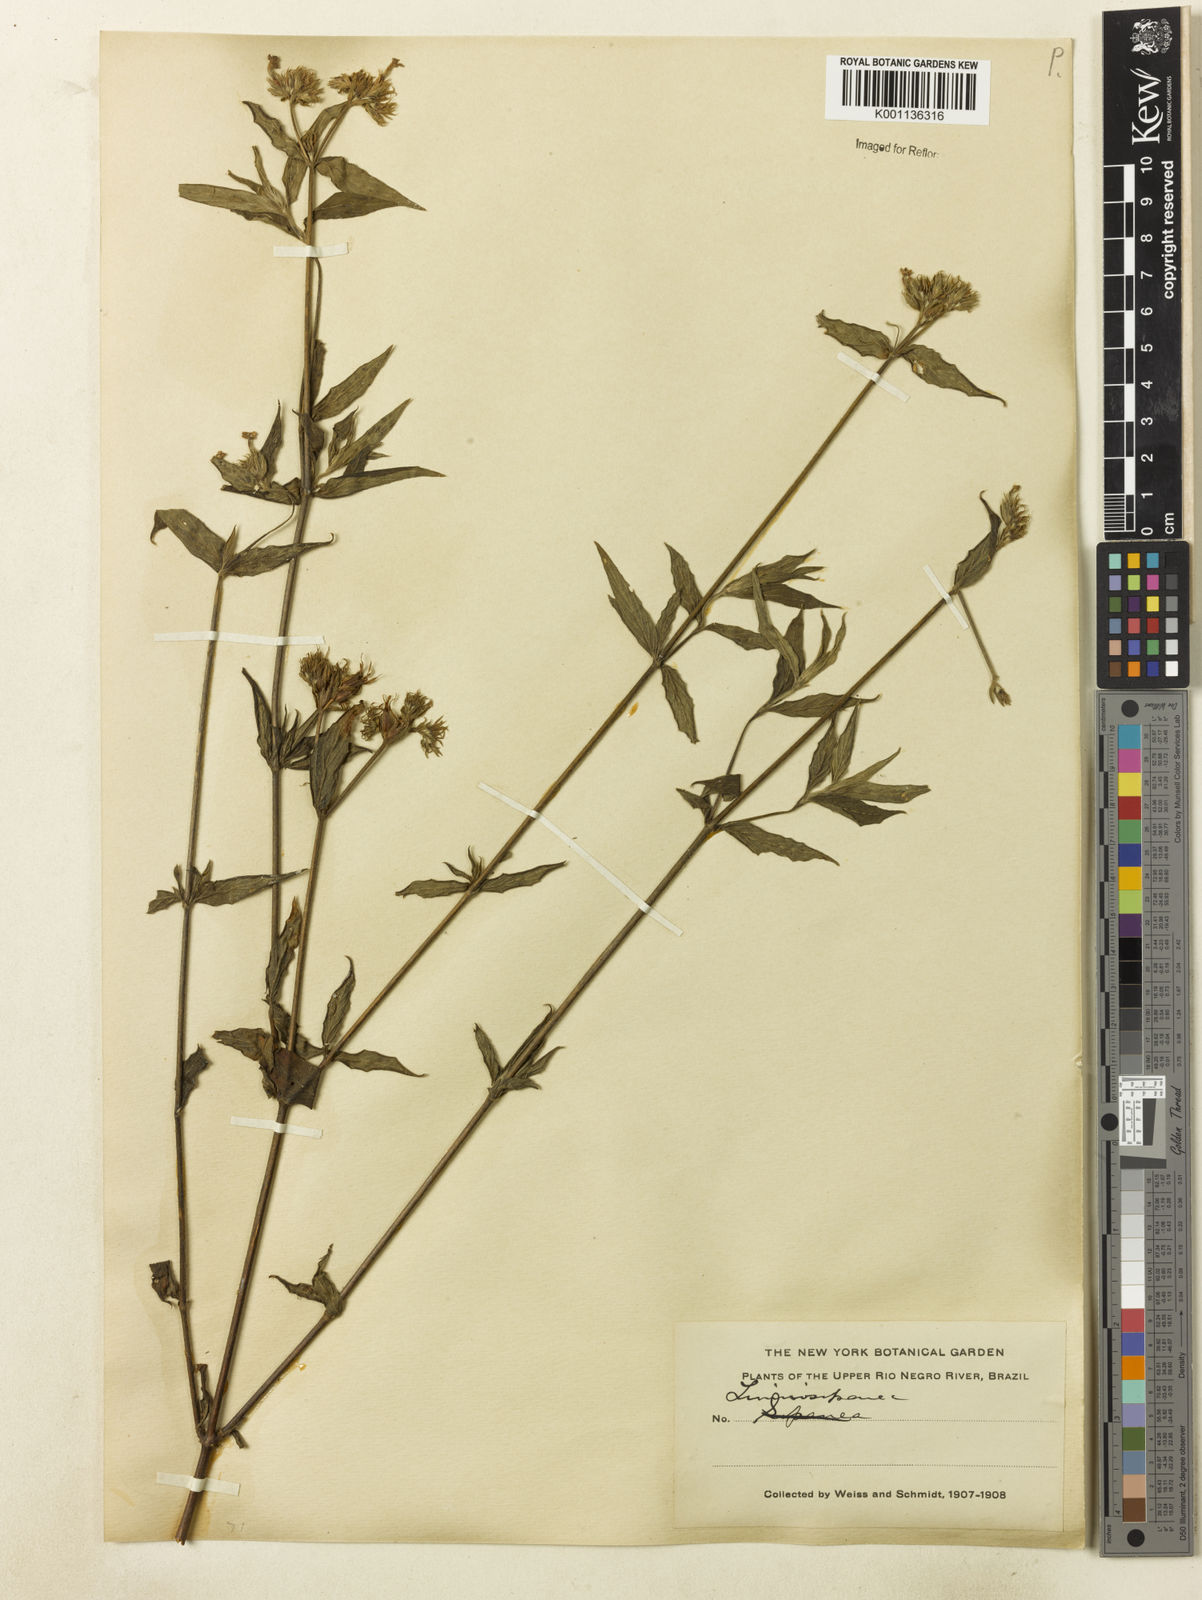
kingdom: Plantae
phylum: Tracheophyta
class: Magnoliopsida
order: Gentianales
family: Rubiaceae
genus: Sipanea
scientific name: Sipanea pratensis
